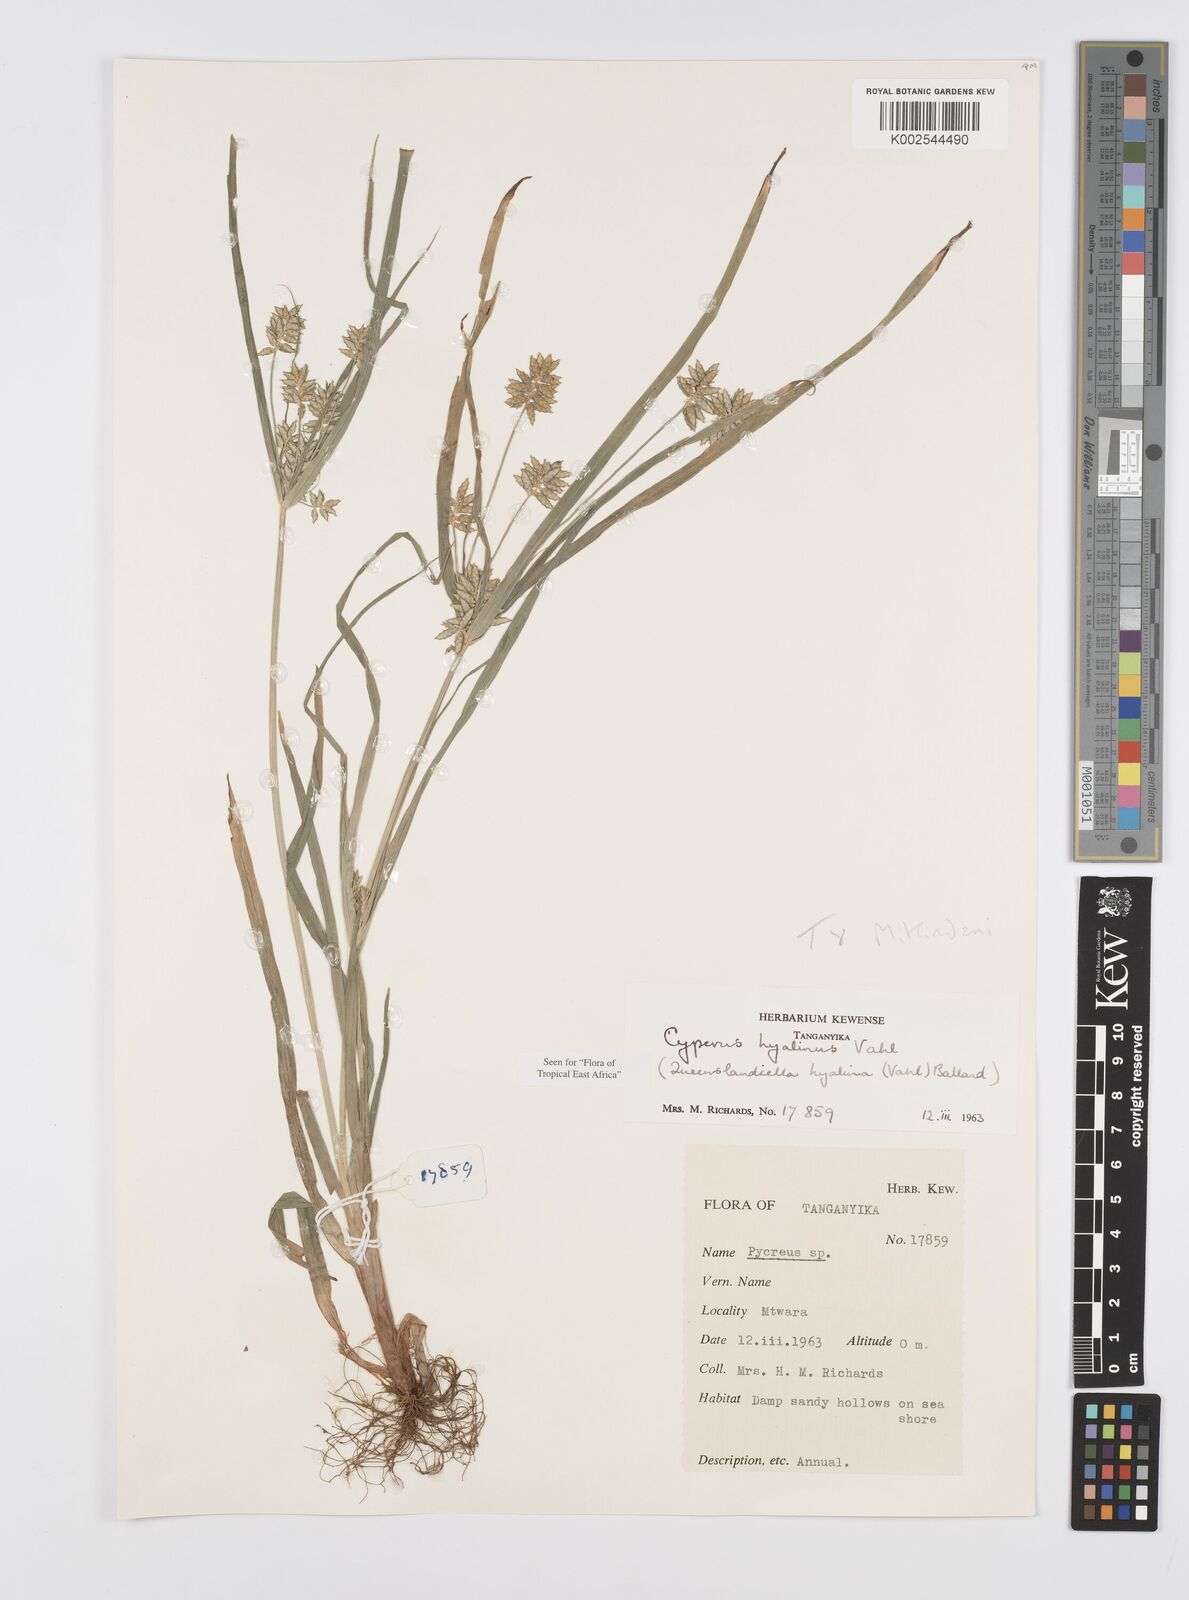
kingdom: Plantae
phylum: Tracheophyta
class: Liliopsida
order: Poales
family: Cyperaceae
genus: Cyperus
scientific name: Cyperus hyalinus
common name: Queensland sedge
